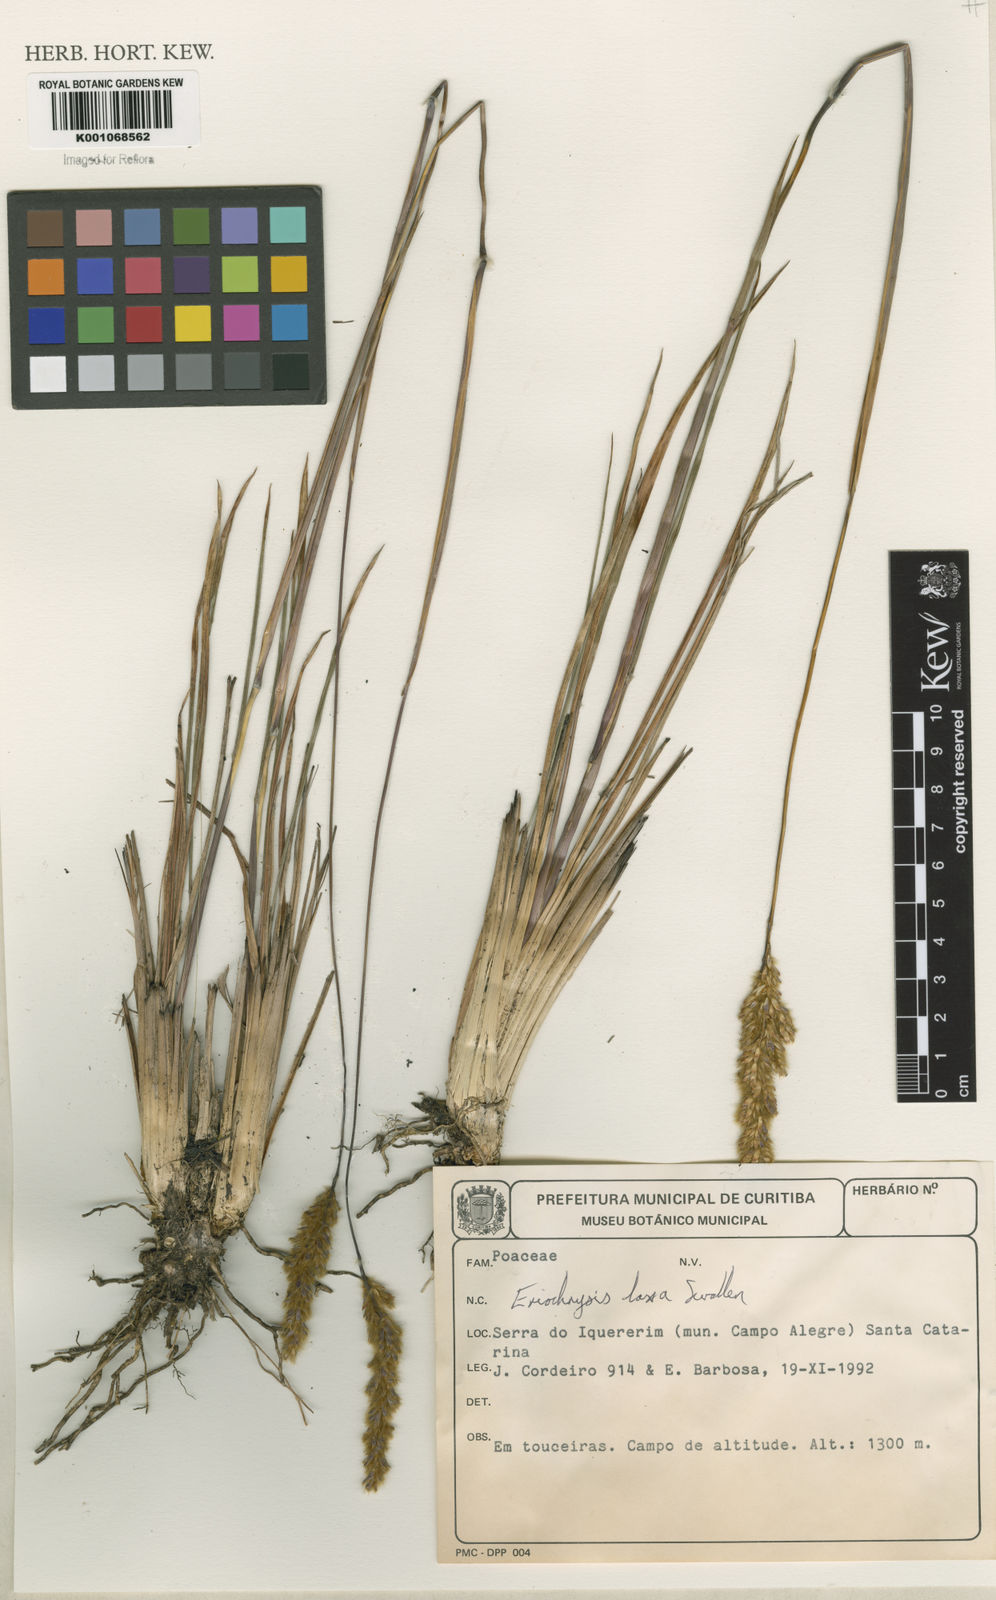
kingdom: Plantae
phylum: Tracheophyta
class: Liliopsida
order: Poales
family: Poaceae
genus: Eriochrysis
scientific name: Eriochrysis laxa
